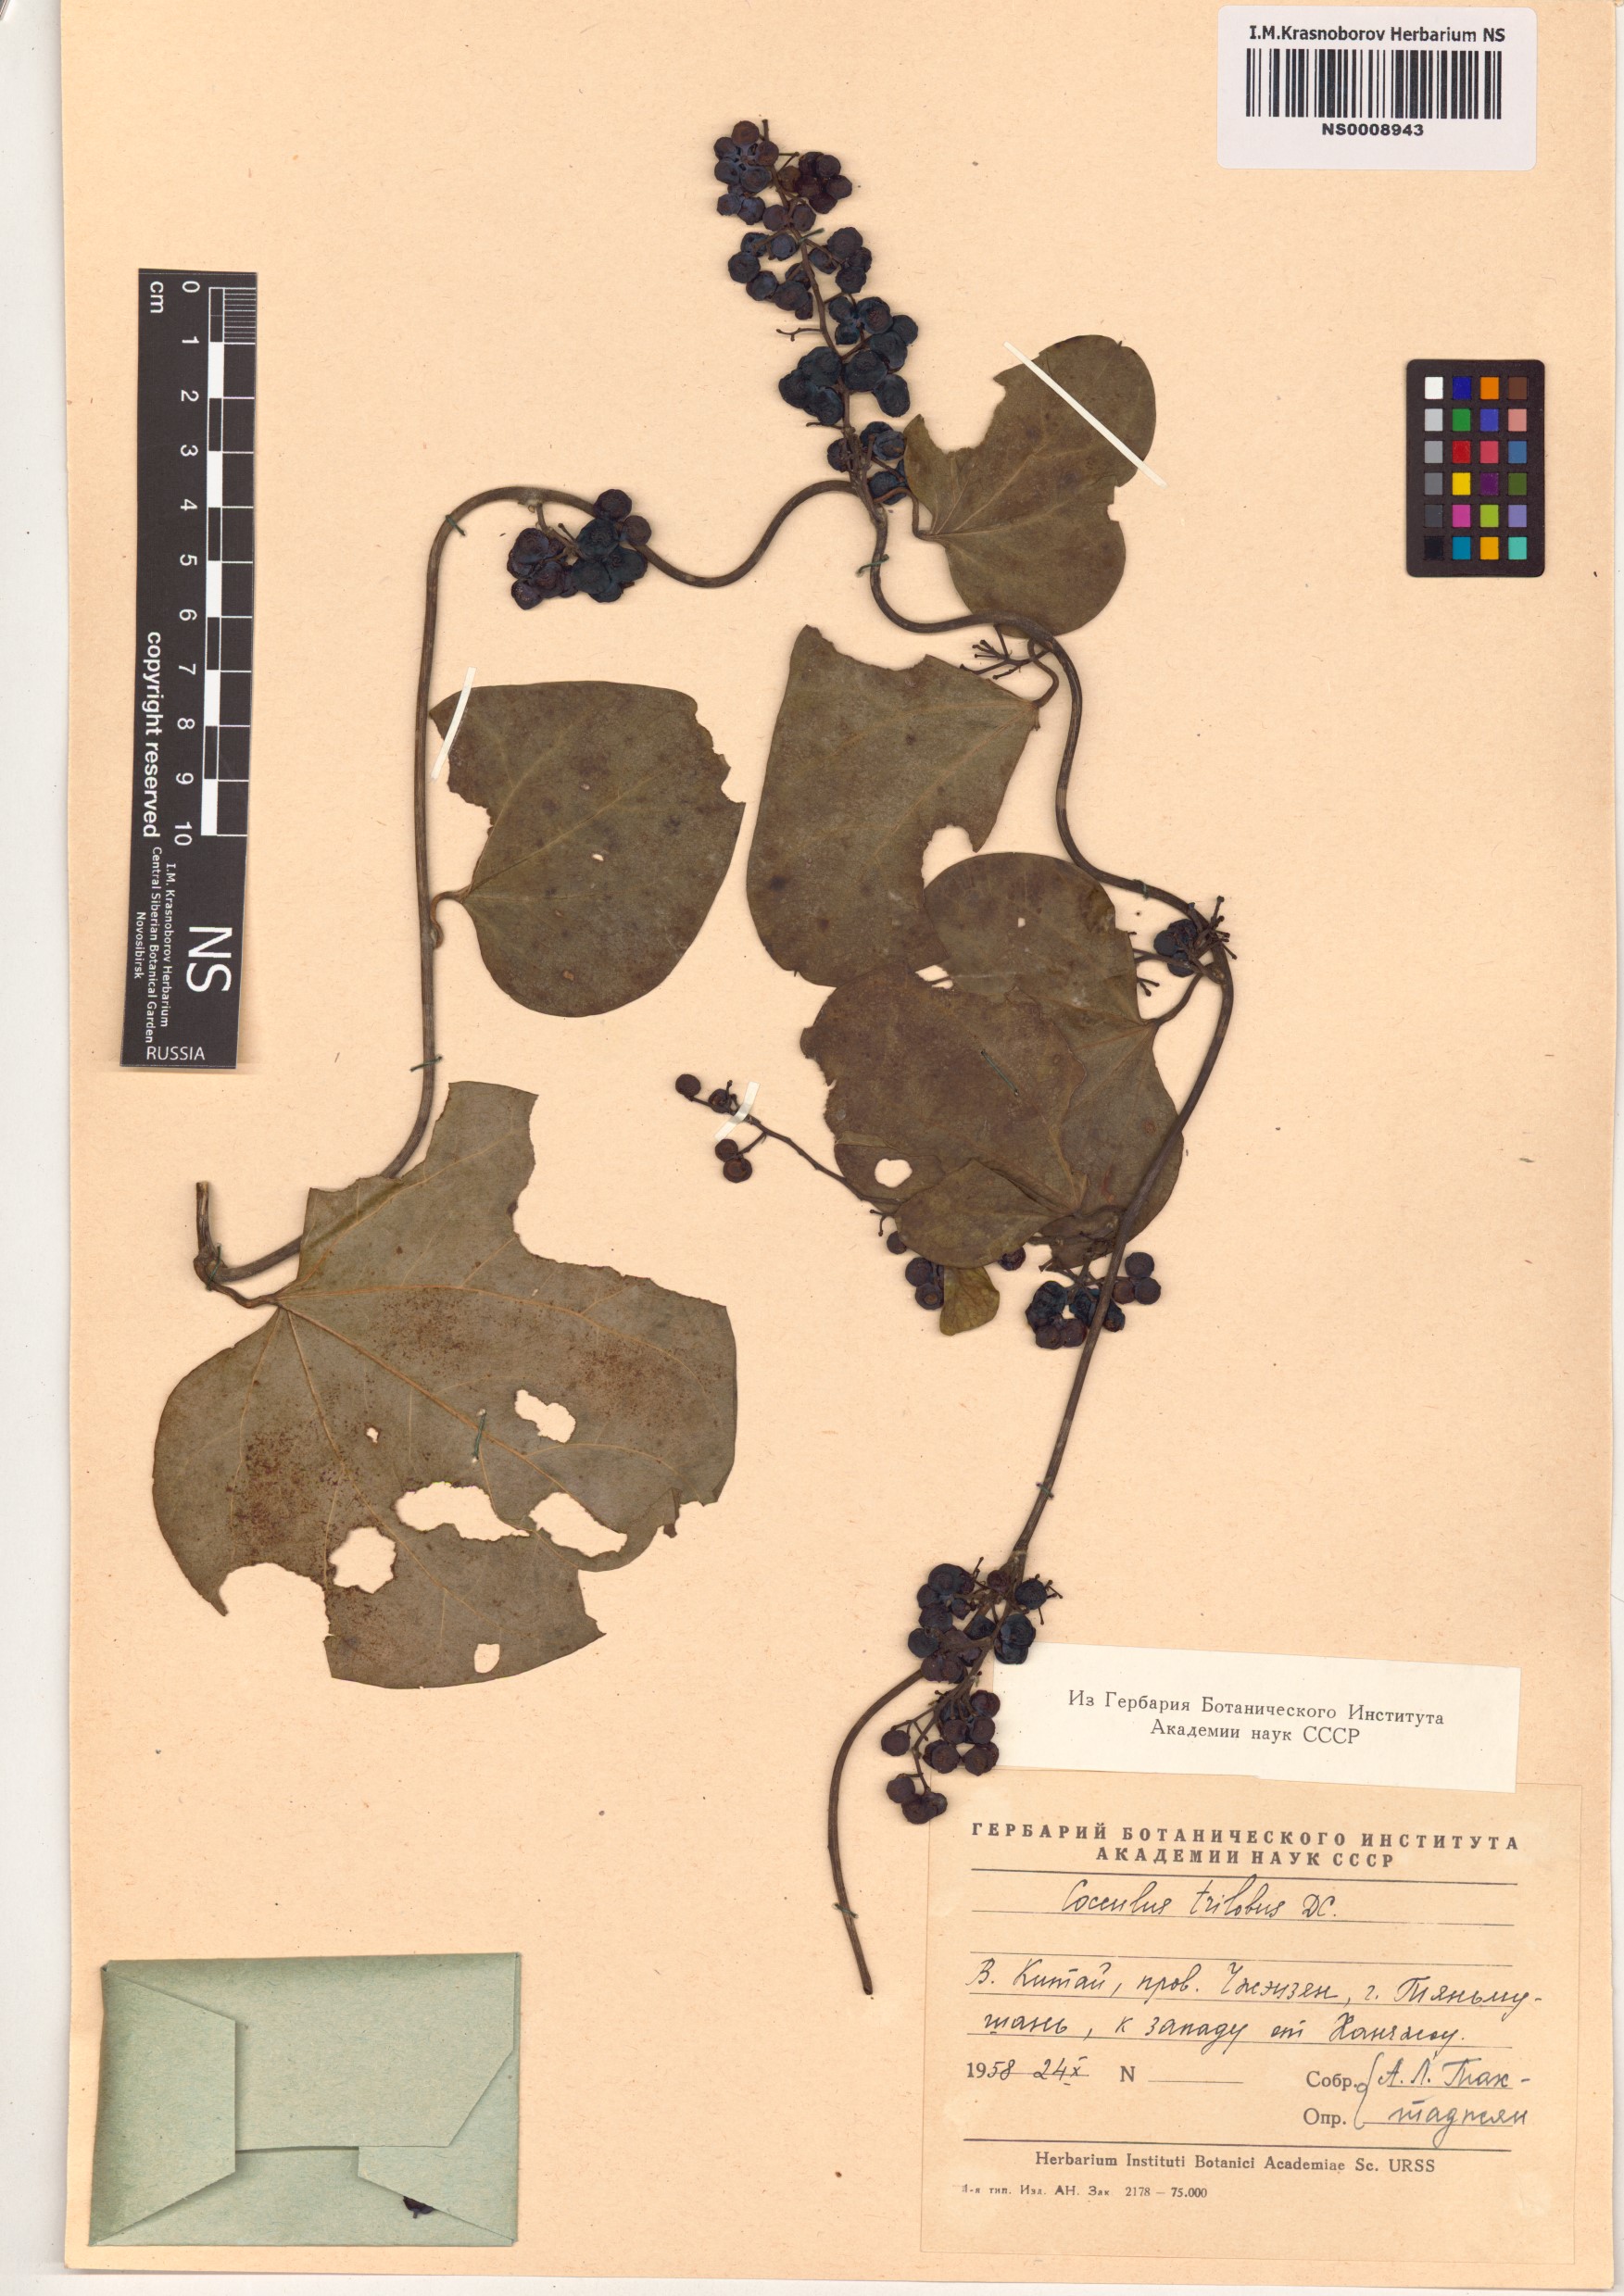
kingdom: Plantae
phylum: Tracheophyta
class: Magnoliopsida
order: Ranunculales
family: Menispermaceae
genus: Cocculus
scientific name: Cocculus orbiculatus
